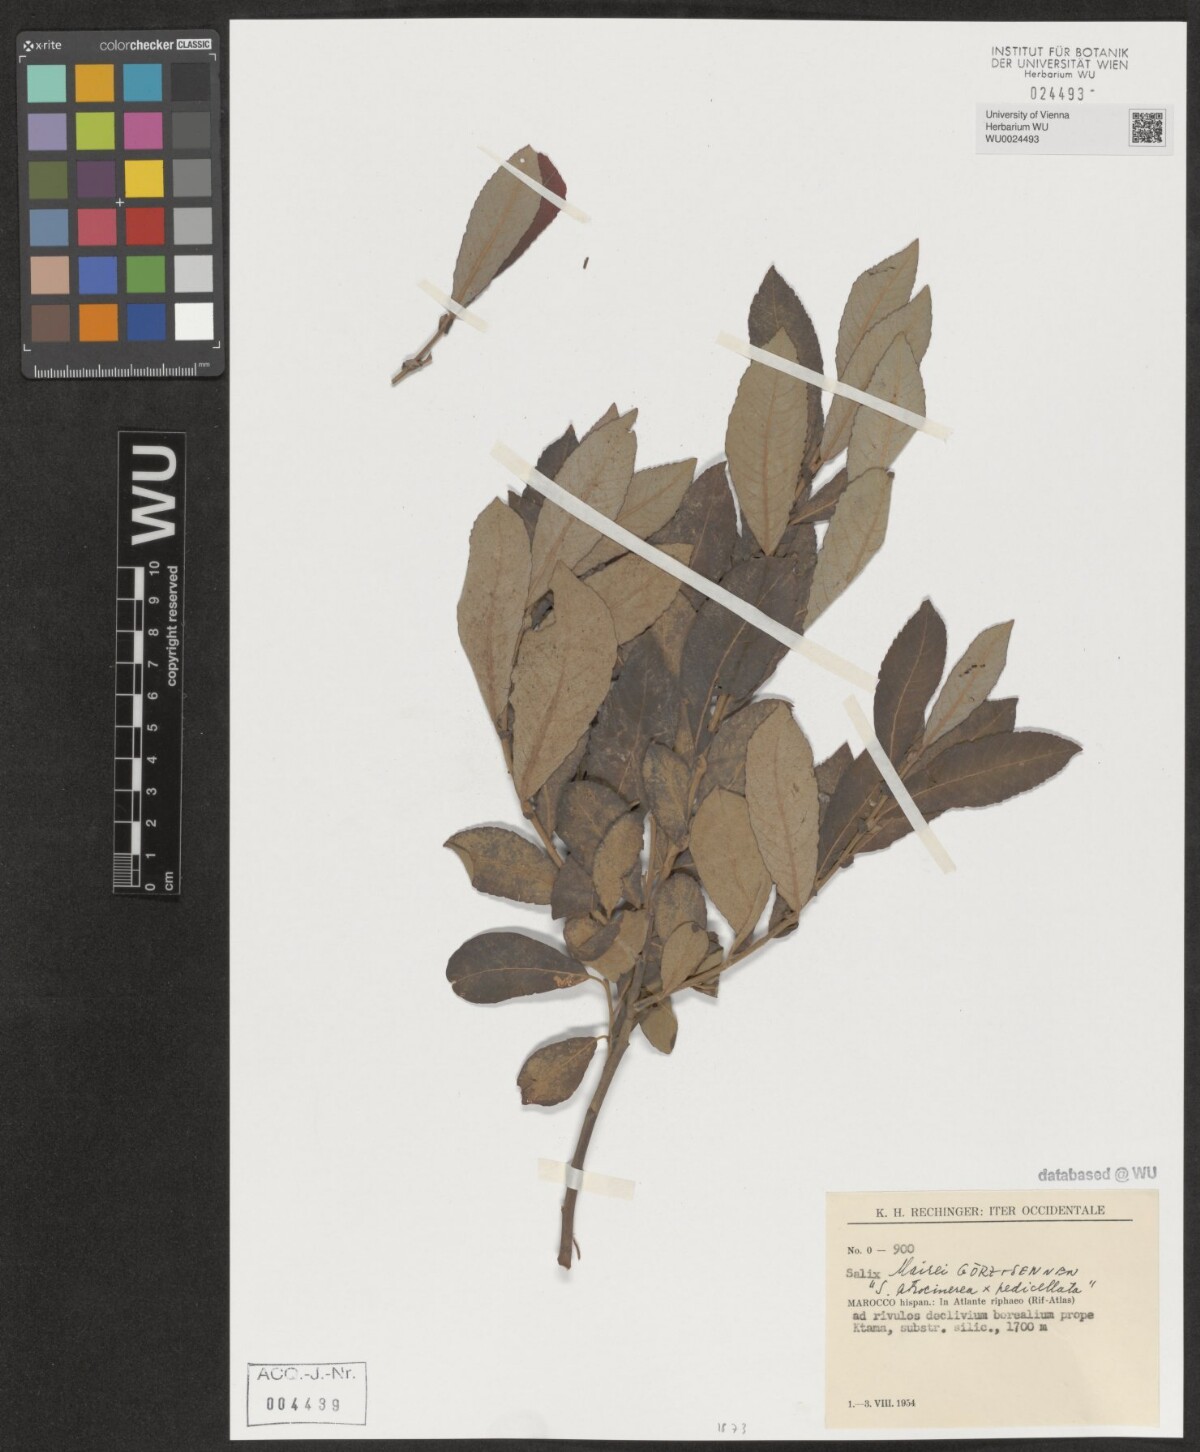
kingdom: Plantae
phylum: Tracheophyta
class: Magnoliopsida
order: Malpighiales
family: Salicaceae
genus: Salix
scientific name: Salix mairei
